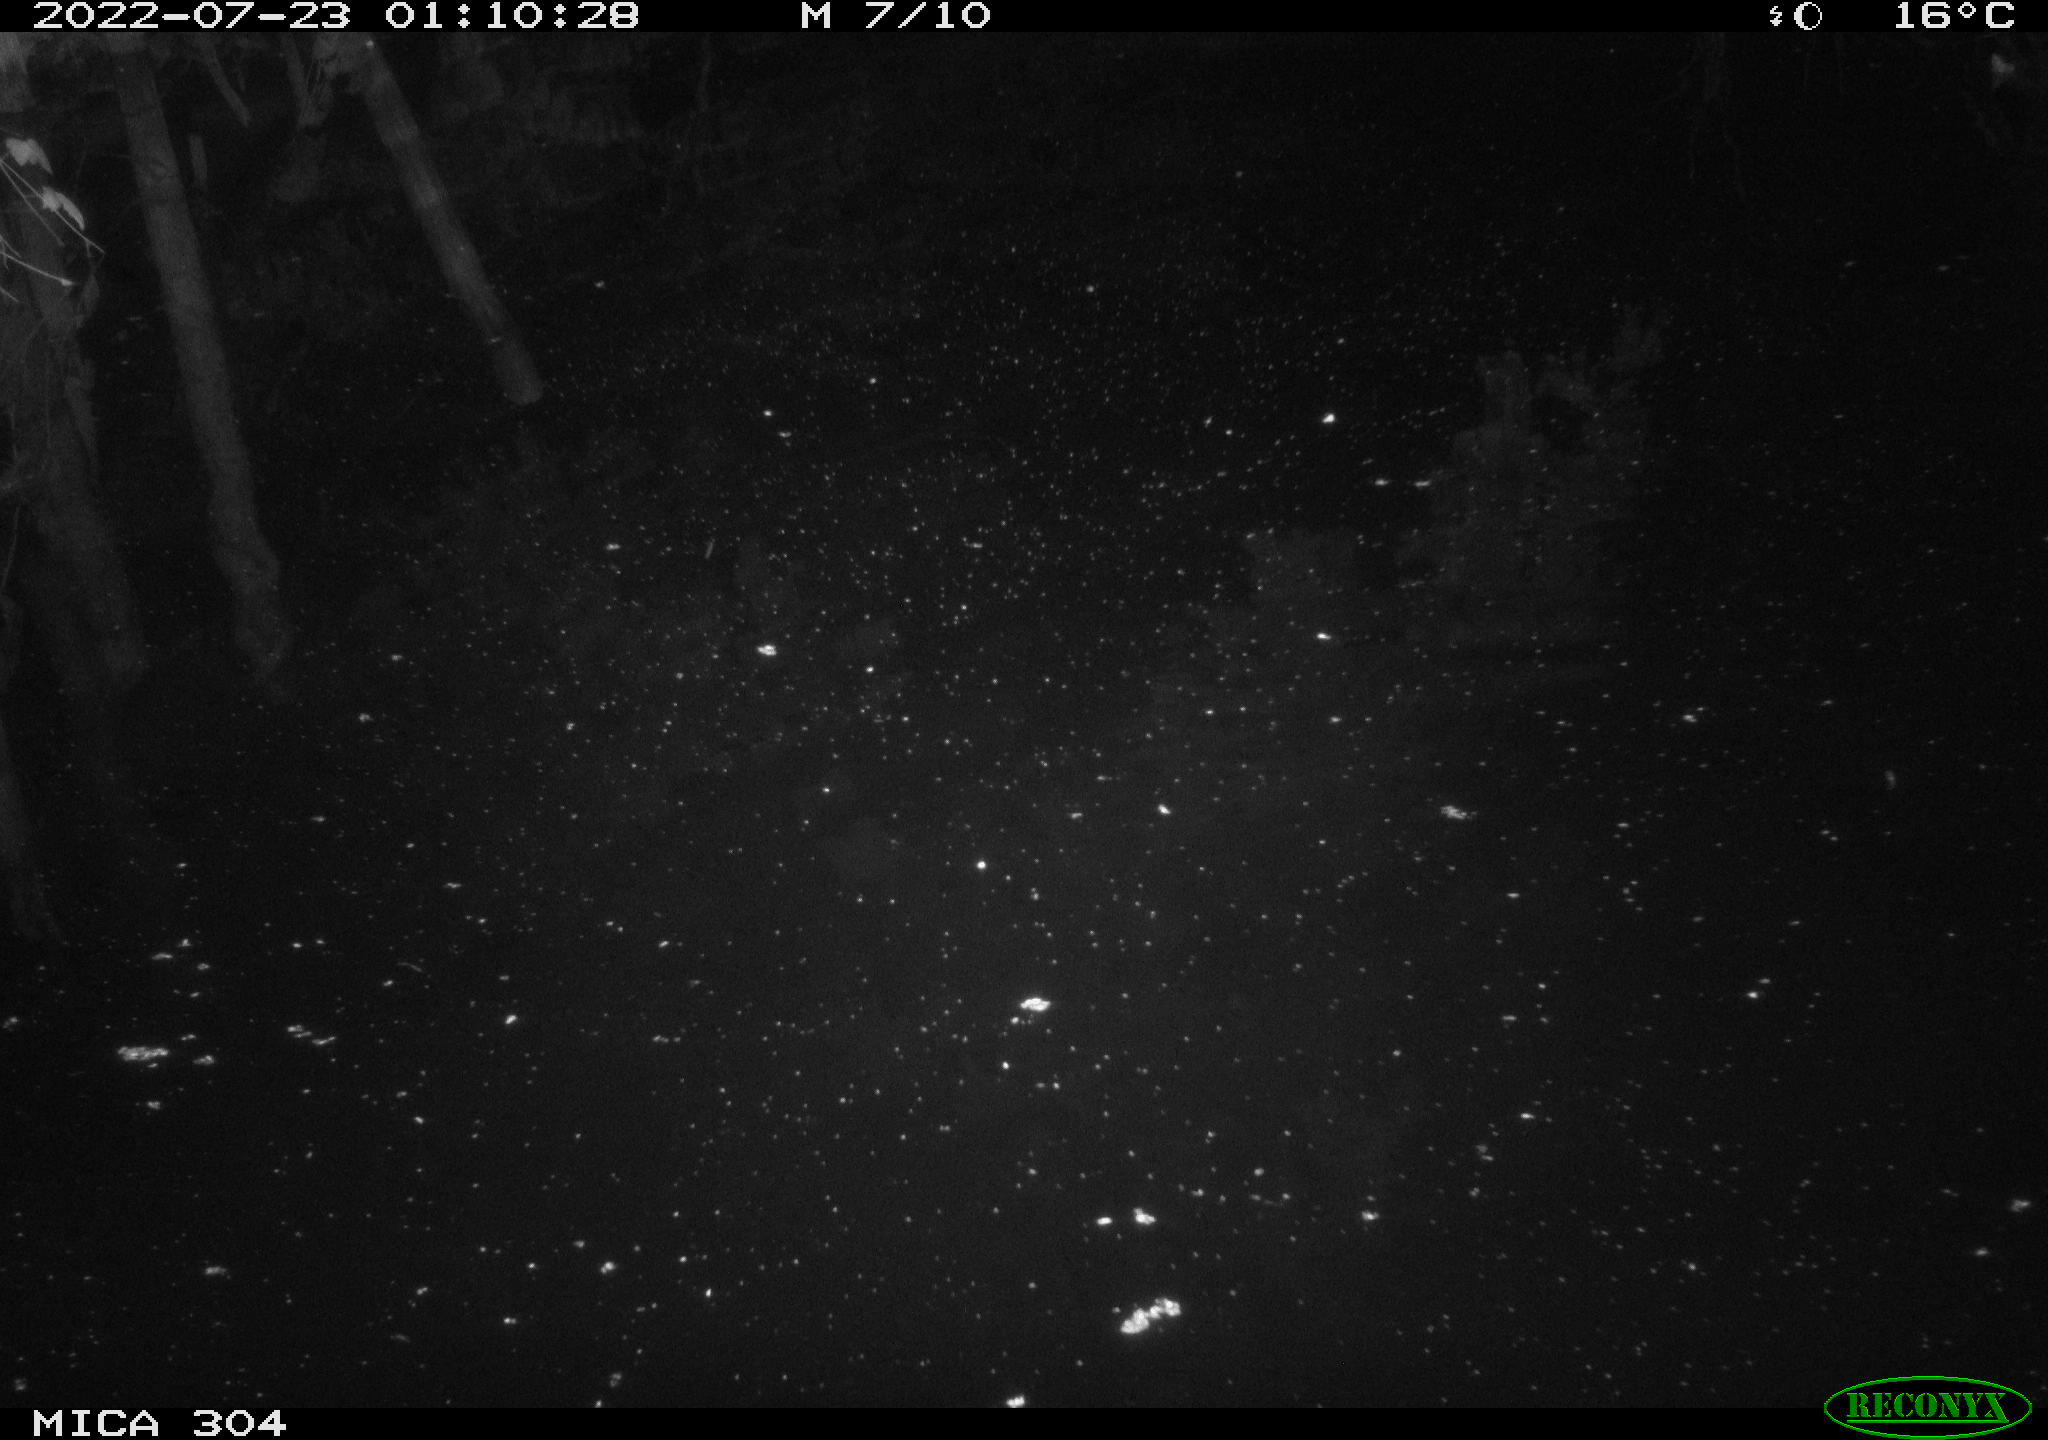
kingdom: Animalia
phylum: Chordata
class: Mammalia
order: Rodentia
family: Muridae
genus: Rattus
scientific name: Rattus norvegicus
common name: Brown rat
